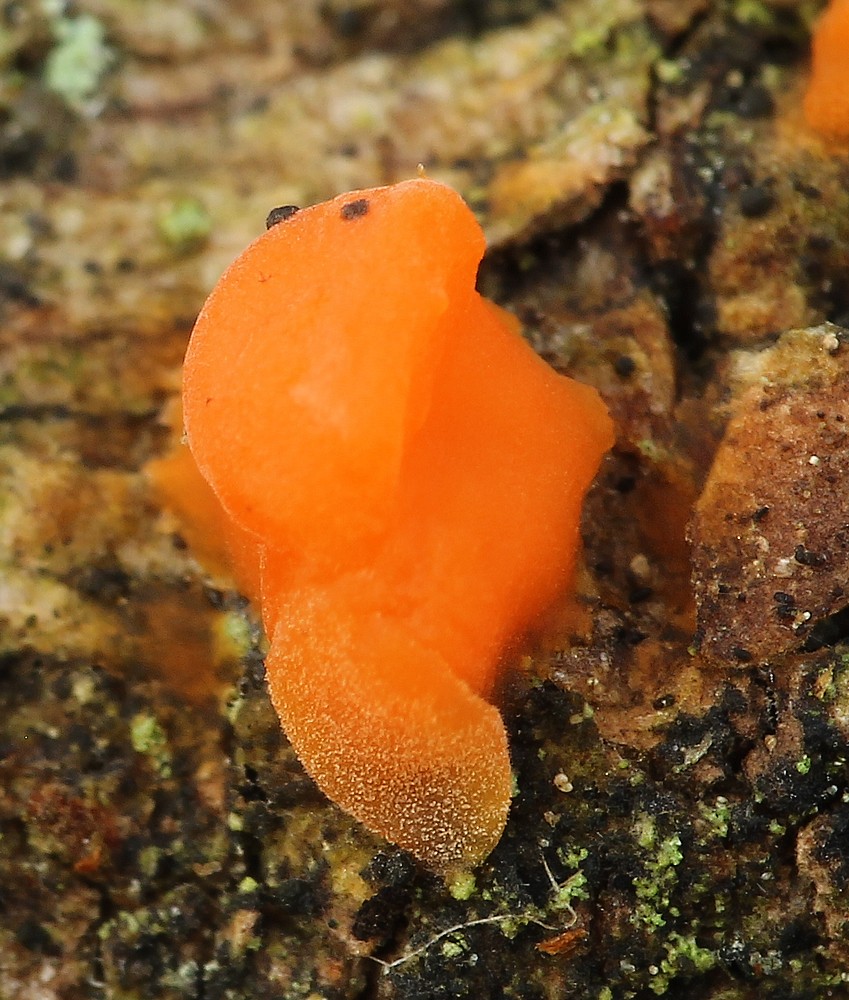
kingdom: Fungi
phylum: Basidiomycota
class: Dacrymycetes
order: Dacrymycetales
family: Dacrymycetaceae
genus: Dacrymyces
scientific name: Dacrymyces stillatus
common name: almindelig tåresvamp
